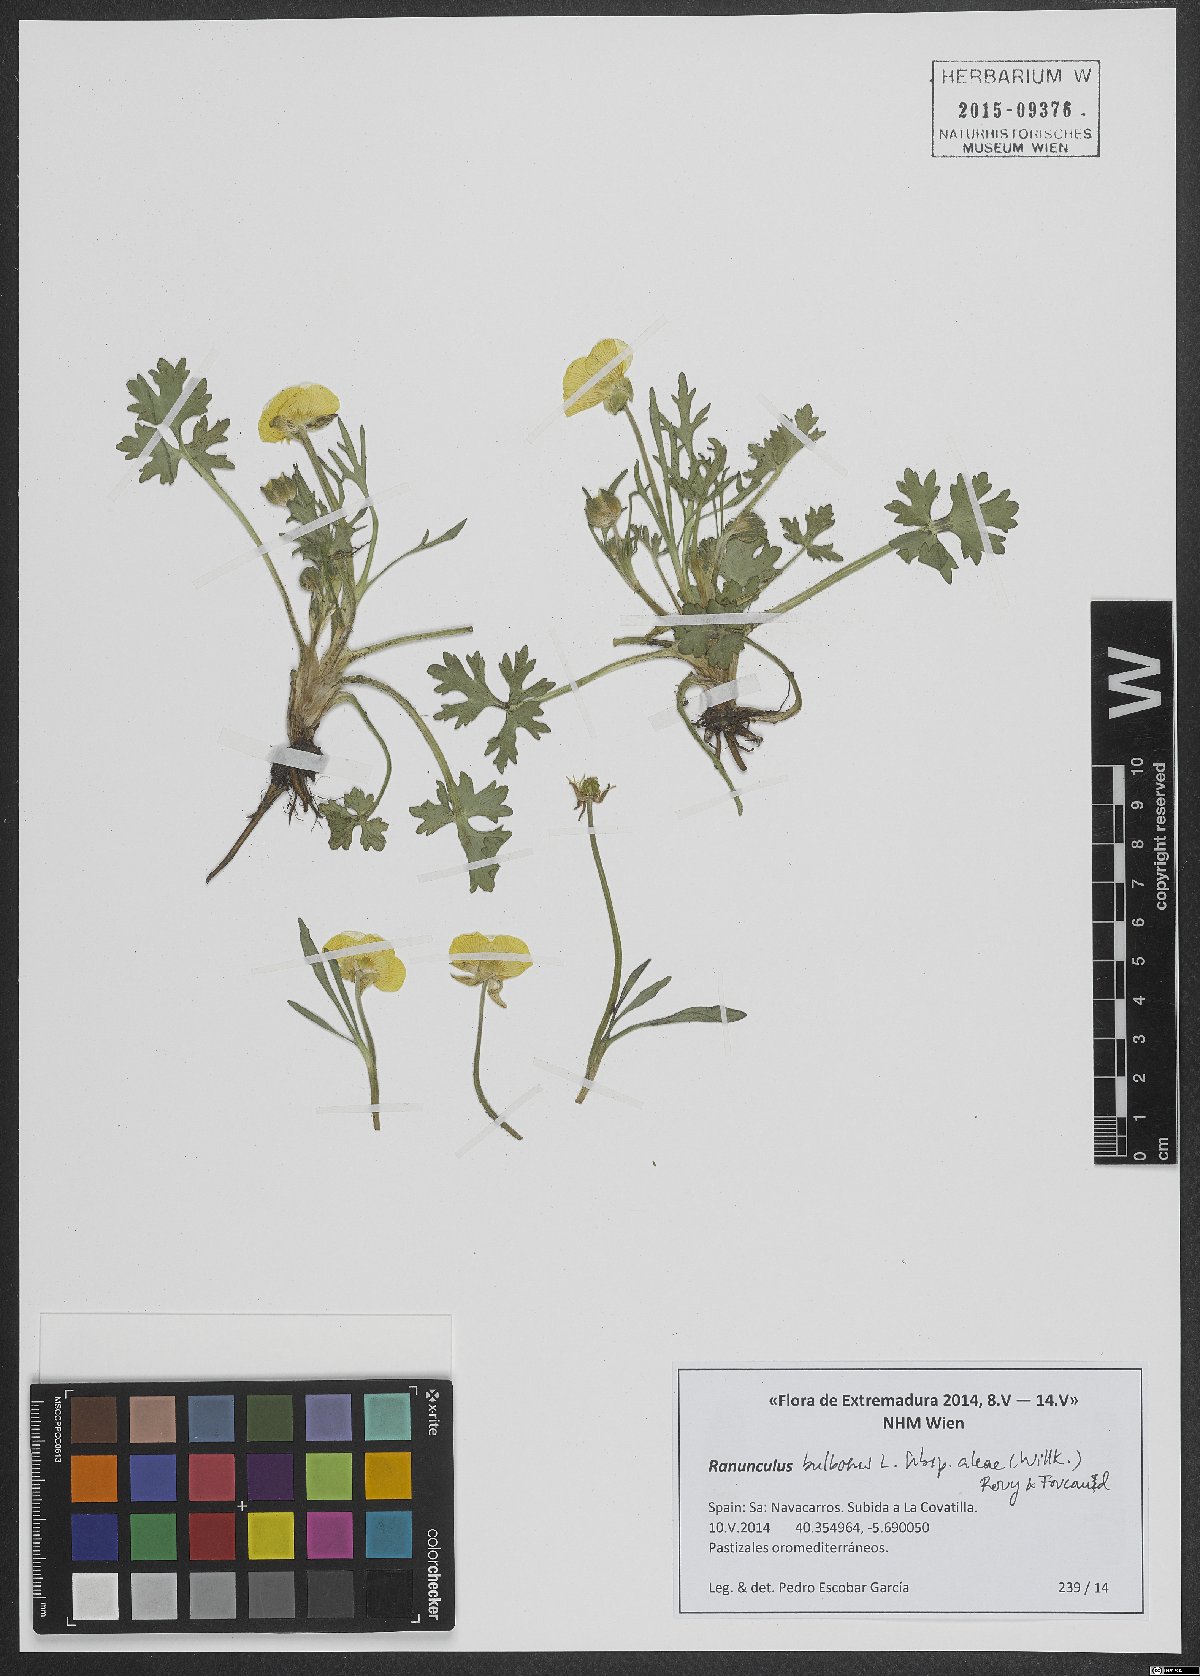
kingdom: Plantae
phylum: Tracheophyta
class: Magnoliopsida
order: Ranunculales
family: Ranunculaceae
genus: Ranunculus
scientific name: Ranunculus neapolitanus
